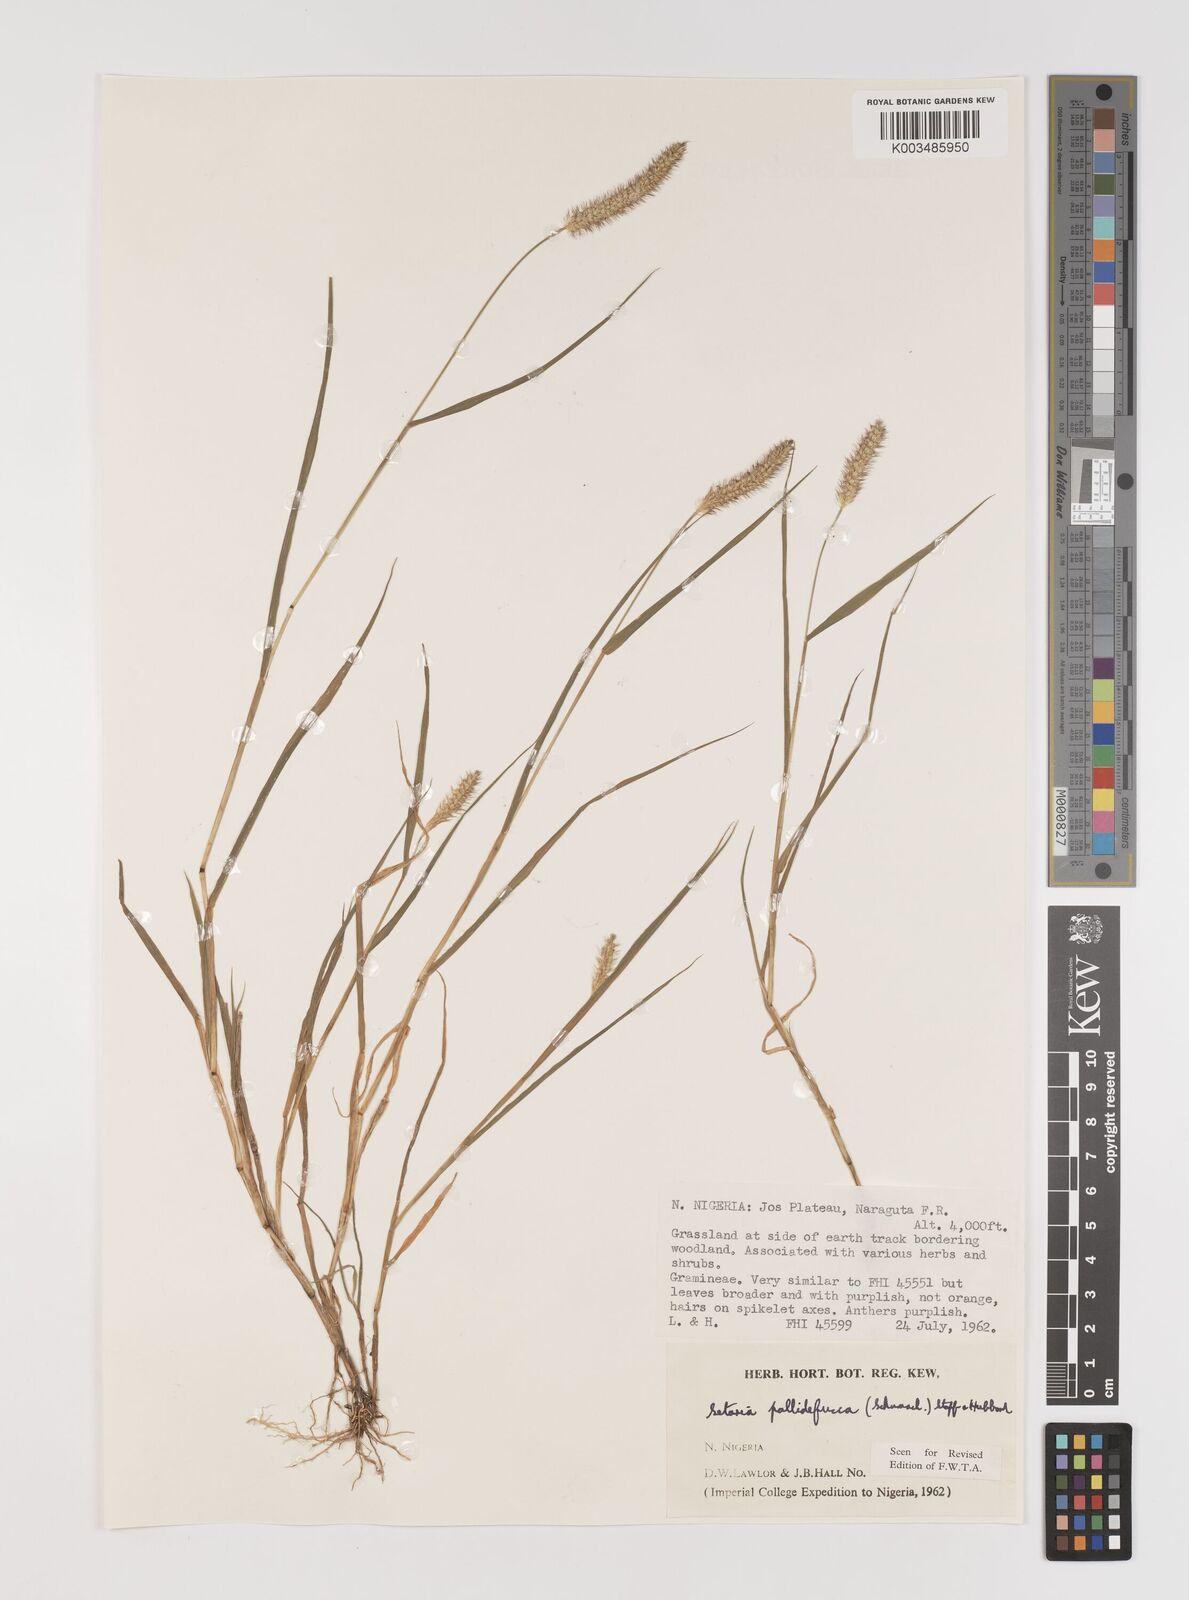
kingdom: Plantae
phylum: Tracheophyta
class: Liliopsida
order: Poales
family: Poaceae
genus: Setaria
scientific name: Setaria pumila
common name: Yellow bristle-grass
